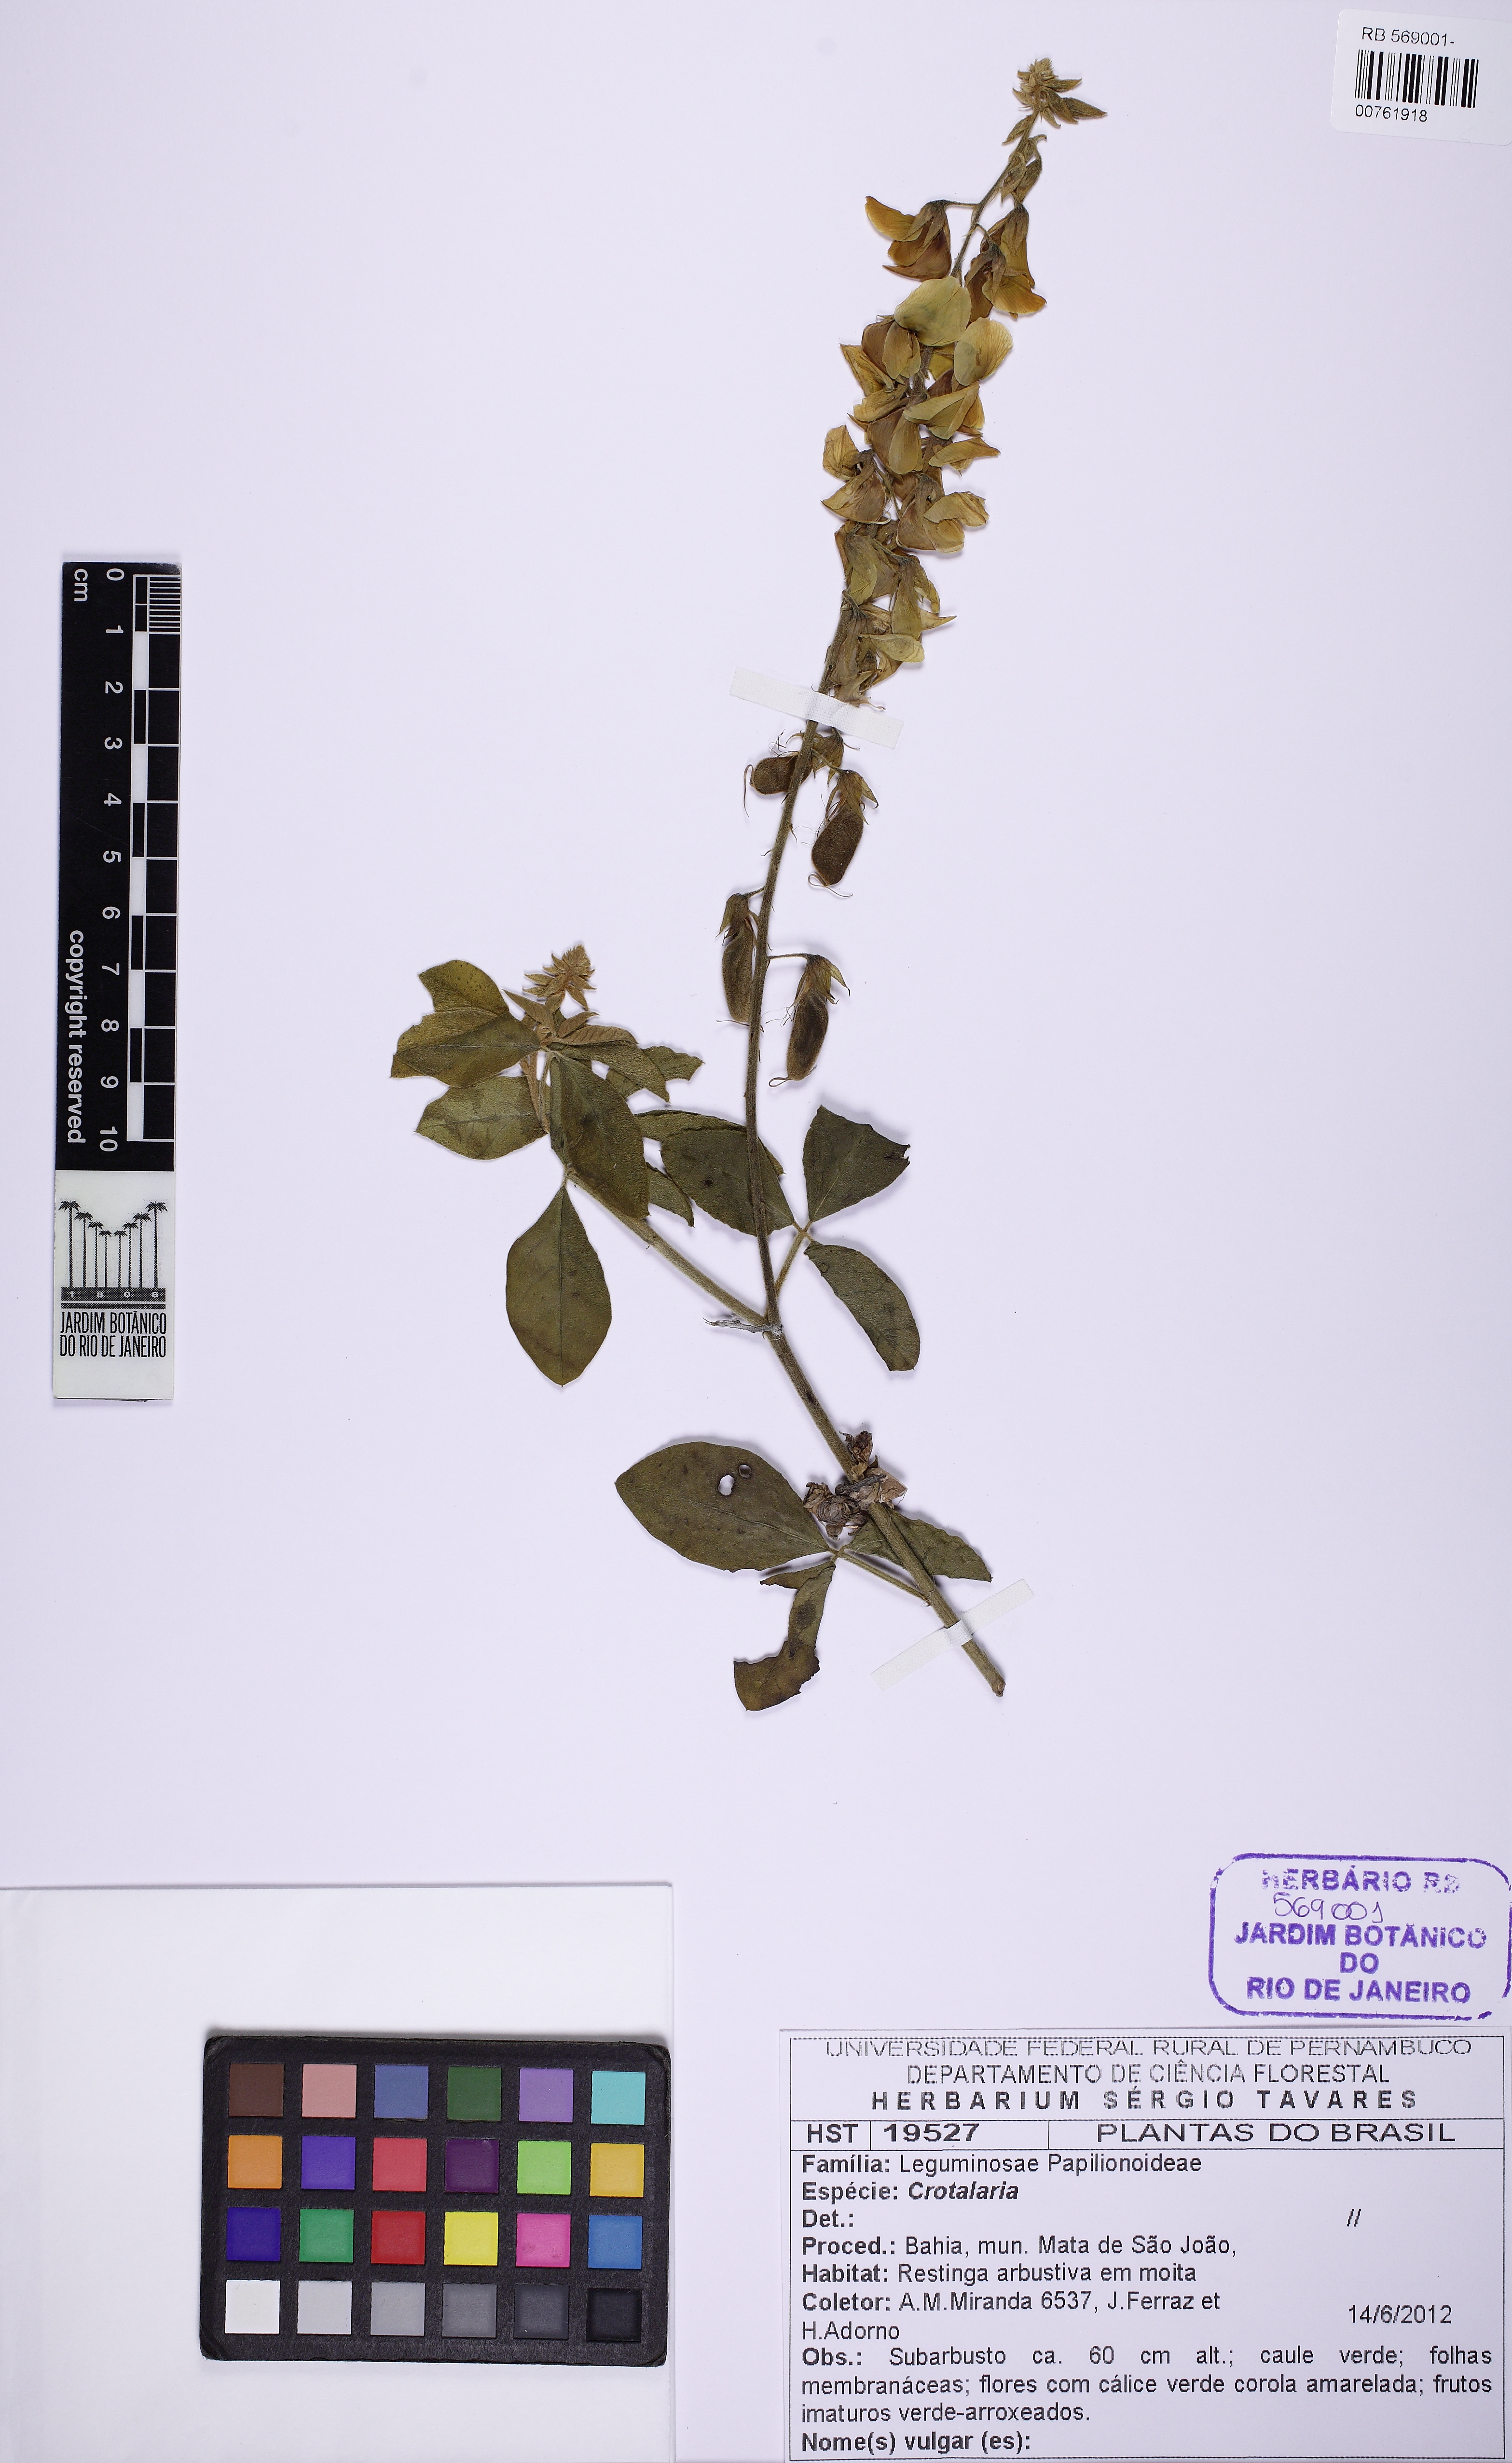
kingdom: Plantae
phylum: Tracheophyta
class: Magnoliopsida
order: Fabales
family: Fabaceae
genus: Crotalaria
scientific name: Crotalaria
